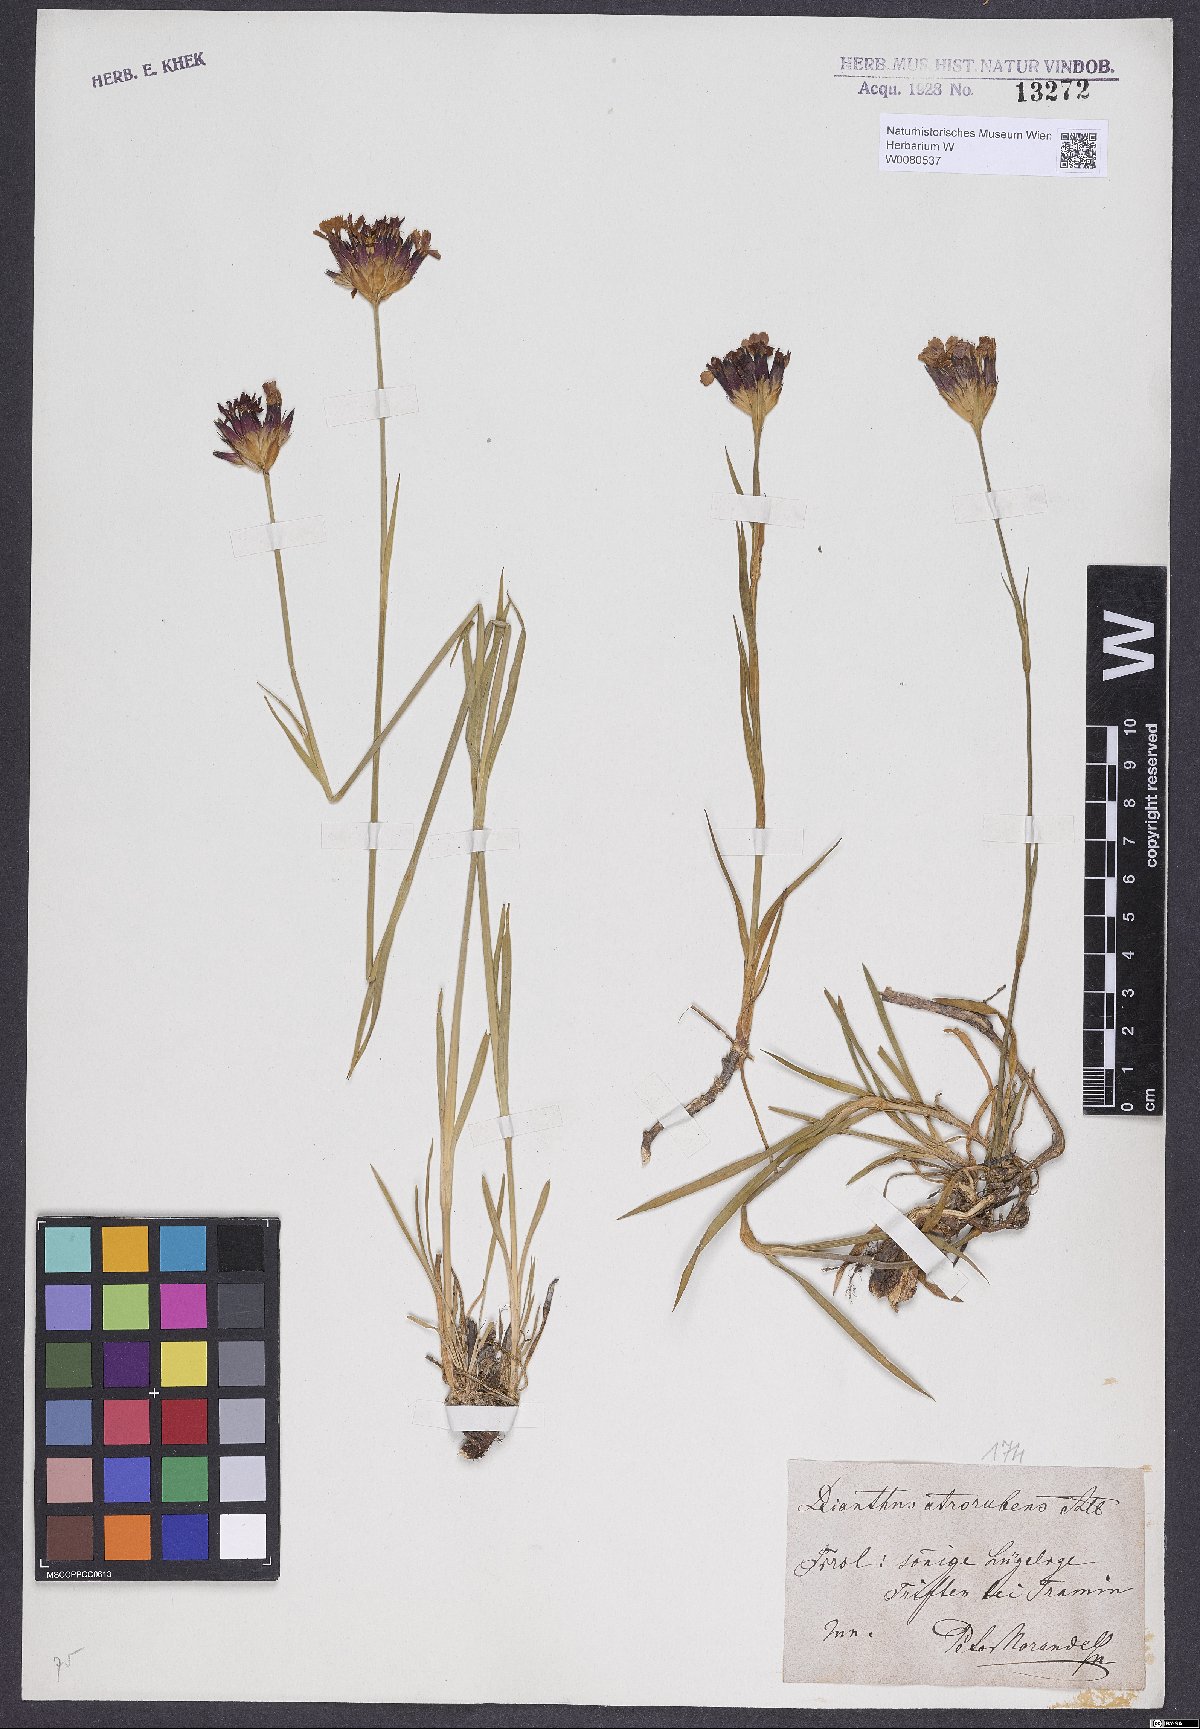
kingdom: Plantae
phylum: Tracheophyta
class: Magnoliopsida
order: Caryophyllales
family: Caryophyllaceae
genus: Dianthus
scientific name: Dianthus carthusianorum
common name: Carthusian pink
